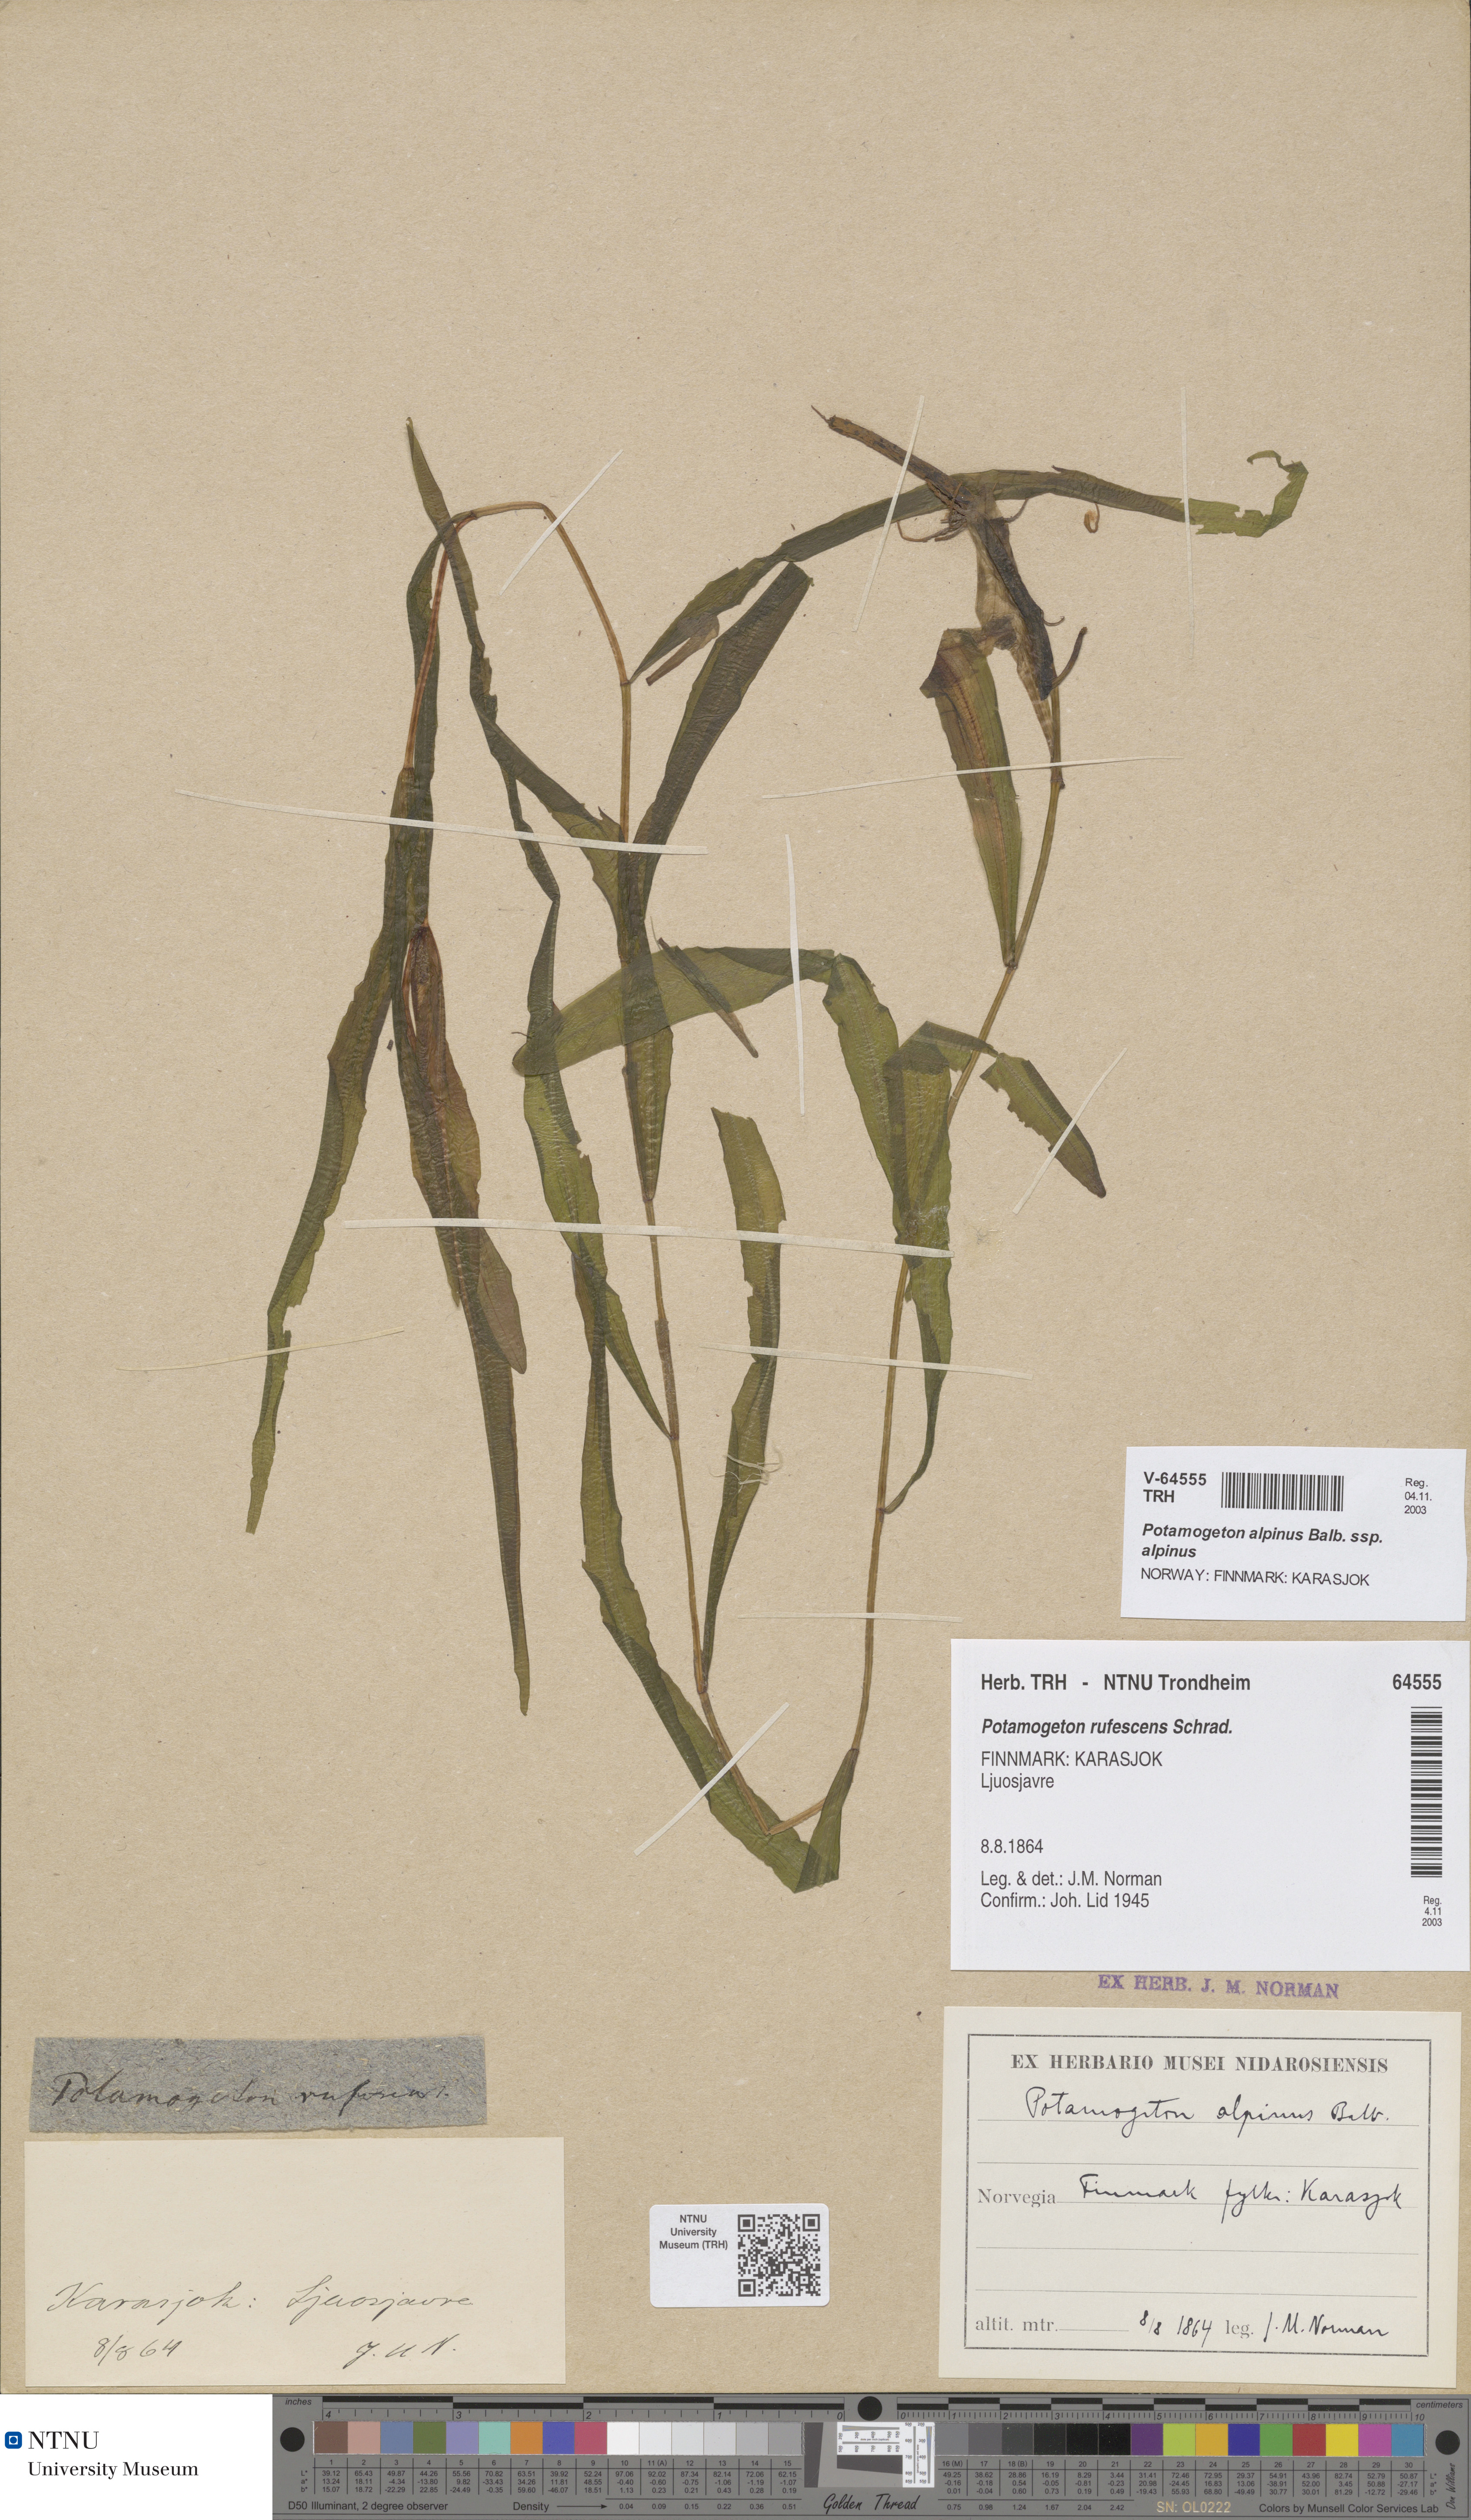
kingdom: Plantae
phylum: Tracheophyta
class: Liliopsida
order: Alismatales
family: Potamogetonaceae
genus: Potamogeton
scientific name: Potamogeton alpinus
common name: Red pondweed
